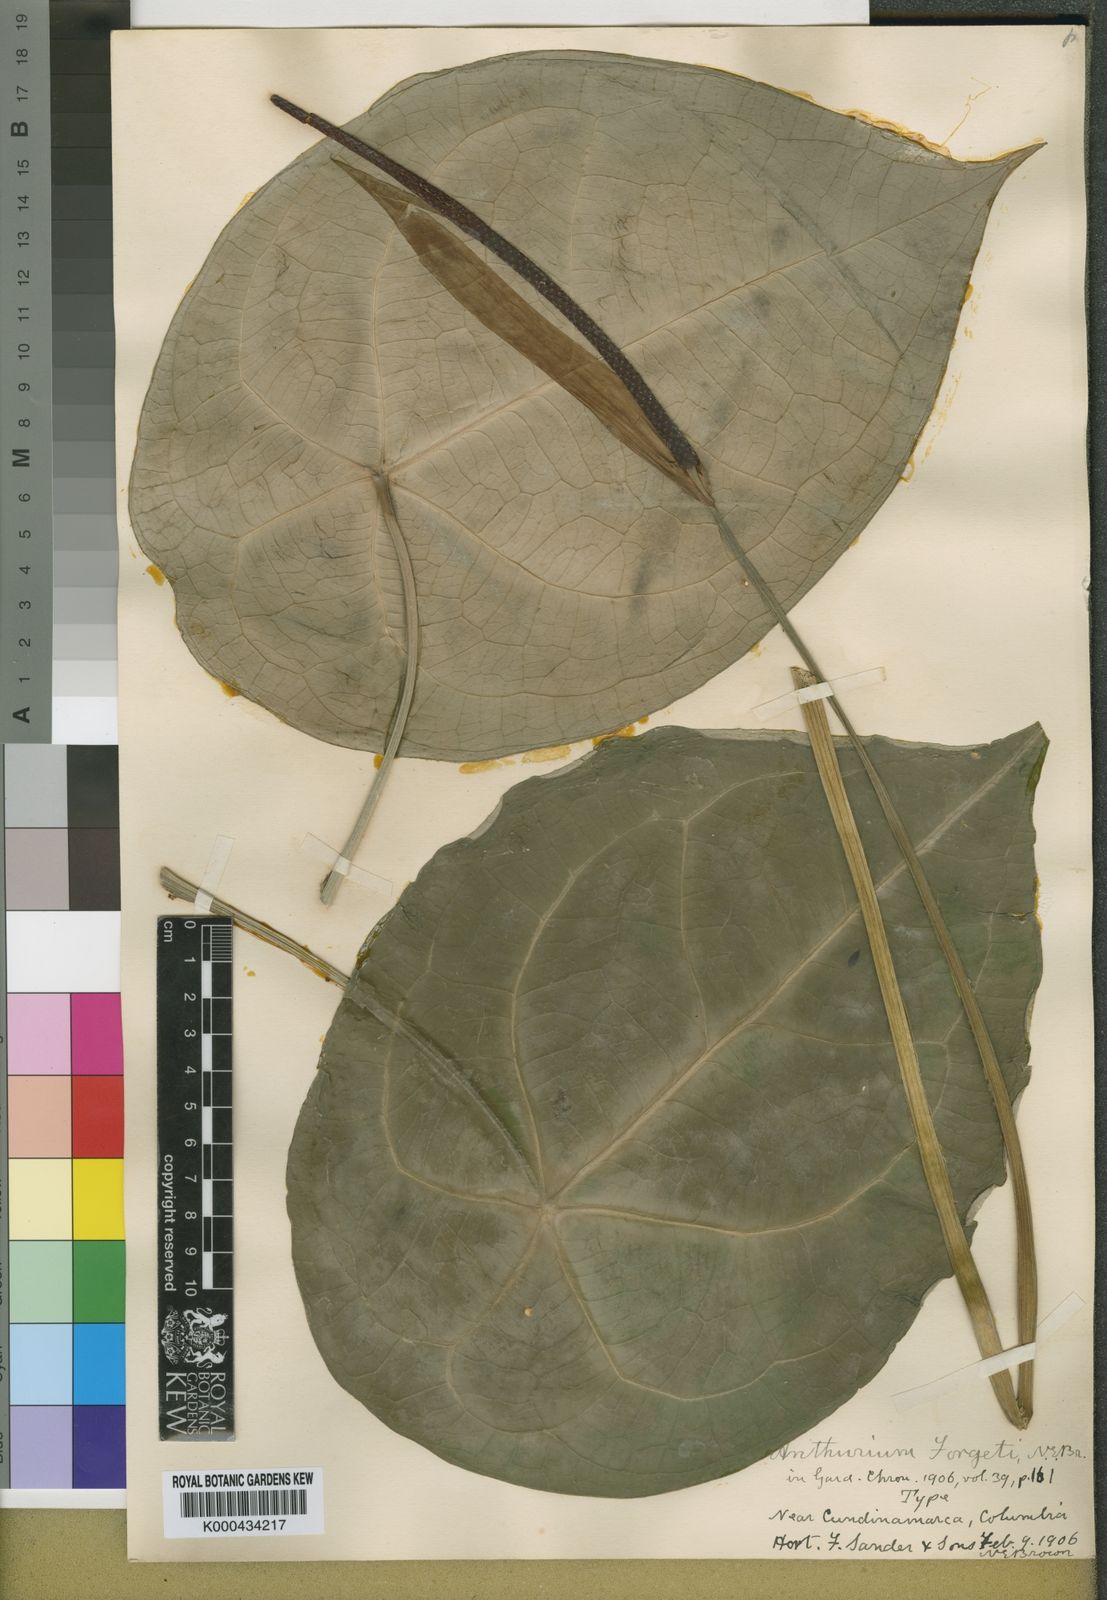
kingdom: Plantae
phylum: Tracheophyta
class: Liliopsida
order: Alismatales
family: Araceae
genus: Anthurium
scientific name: Anthurium forgetii
